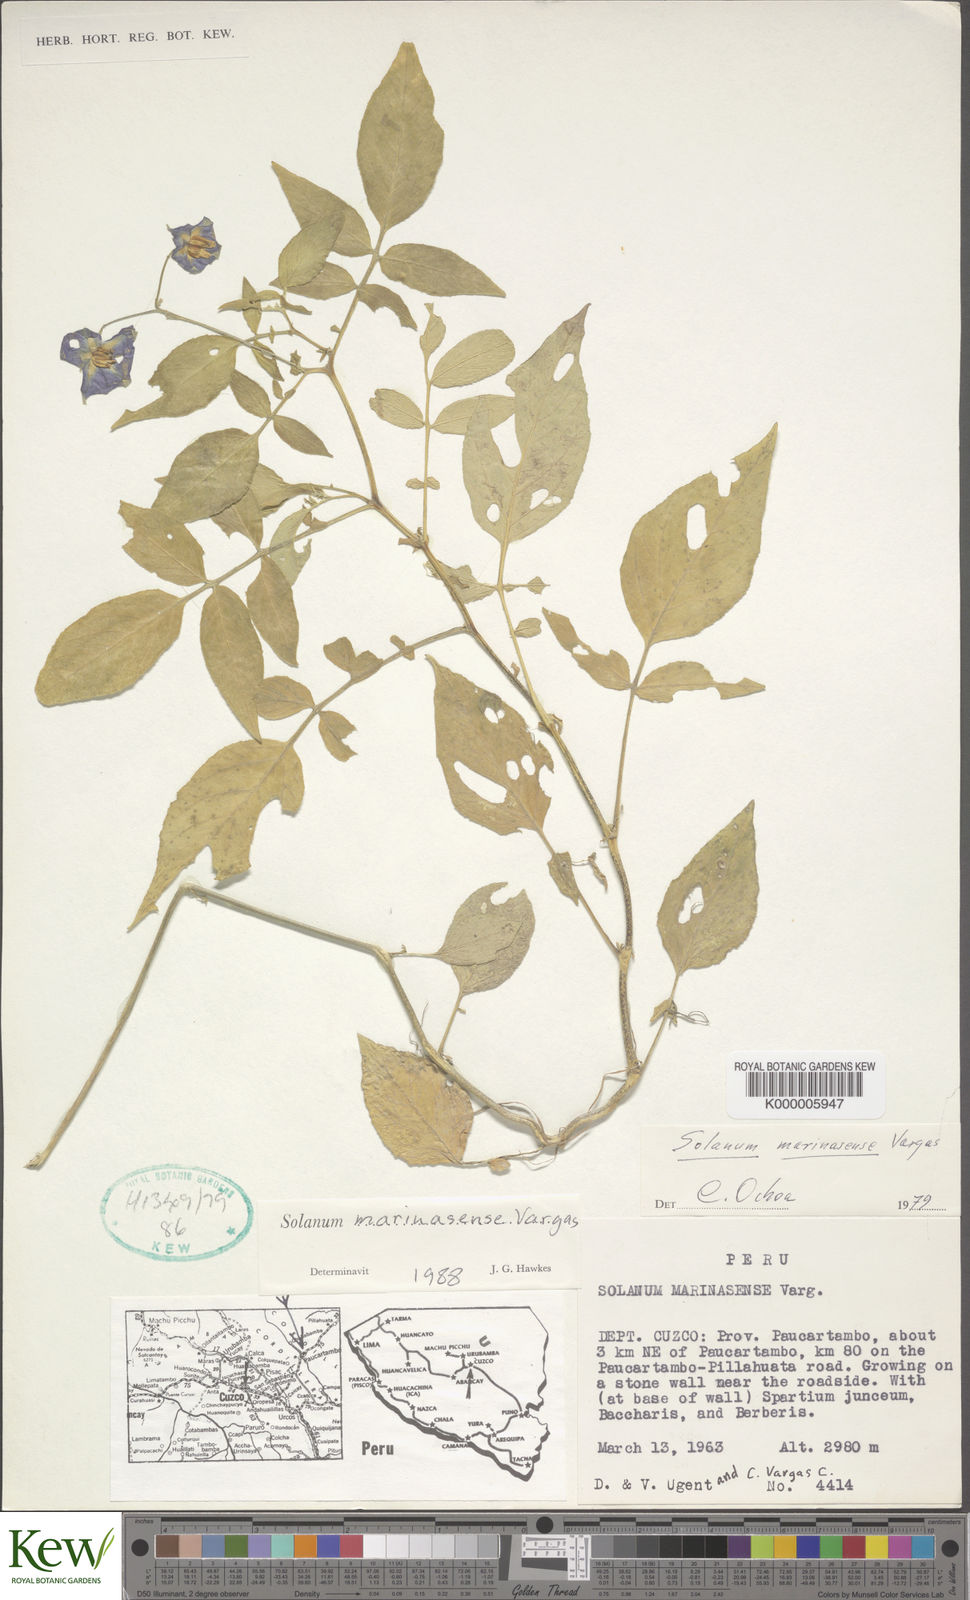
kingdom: Plantae
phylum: Tracheophyta
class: Magnoliopsida
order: Solanales
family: Solanaceae
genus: Solanum
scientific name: Solanum candolleanum
